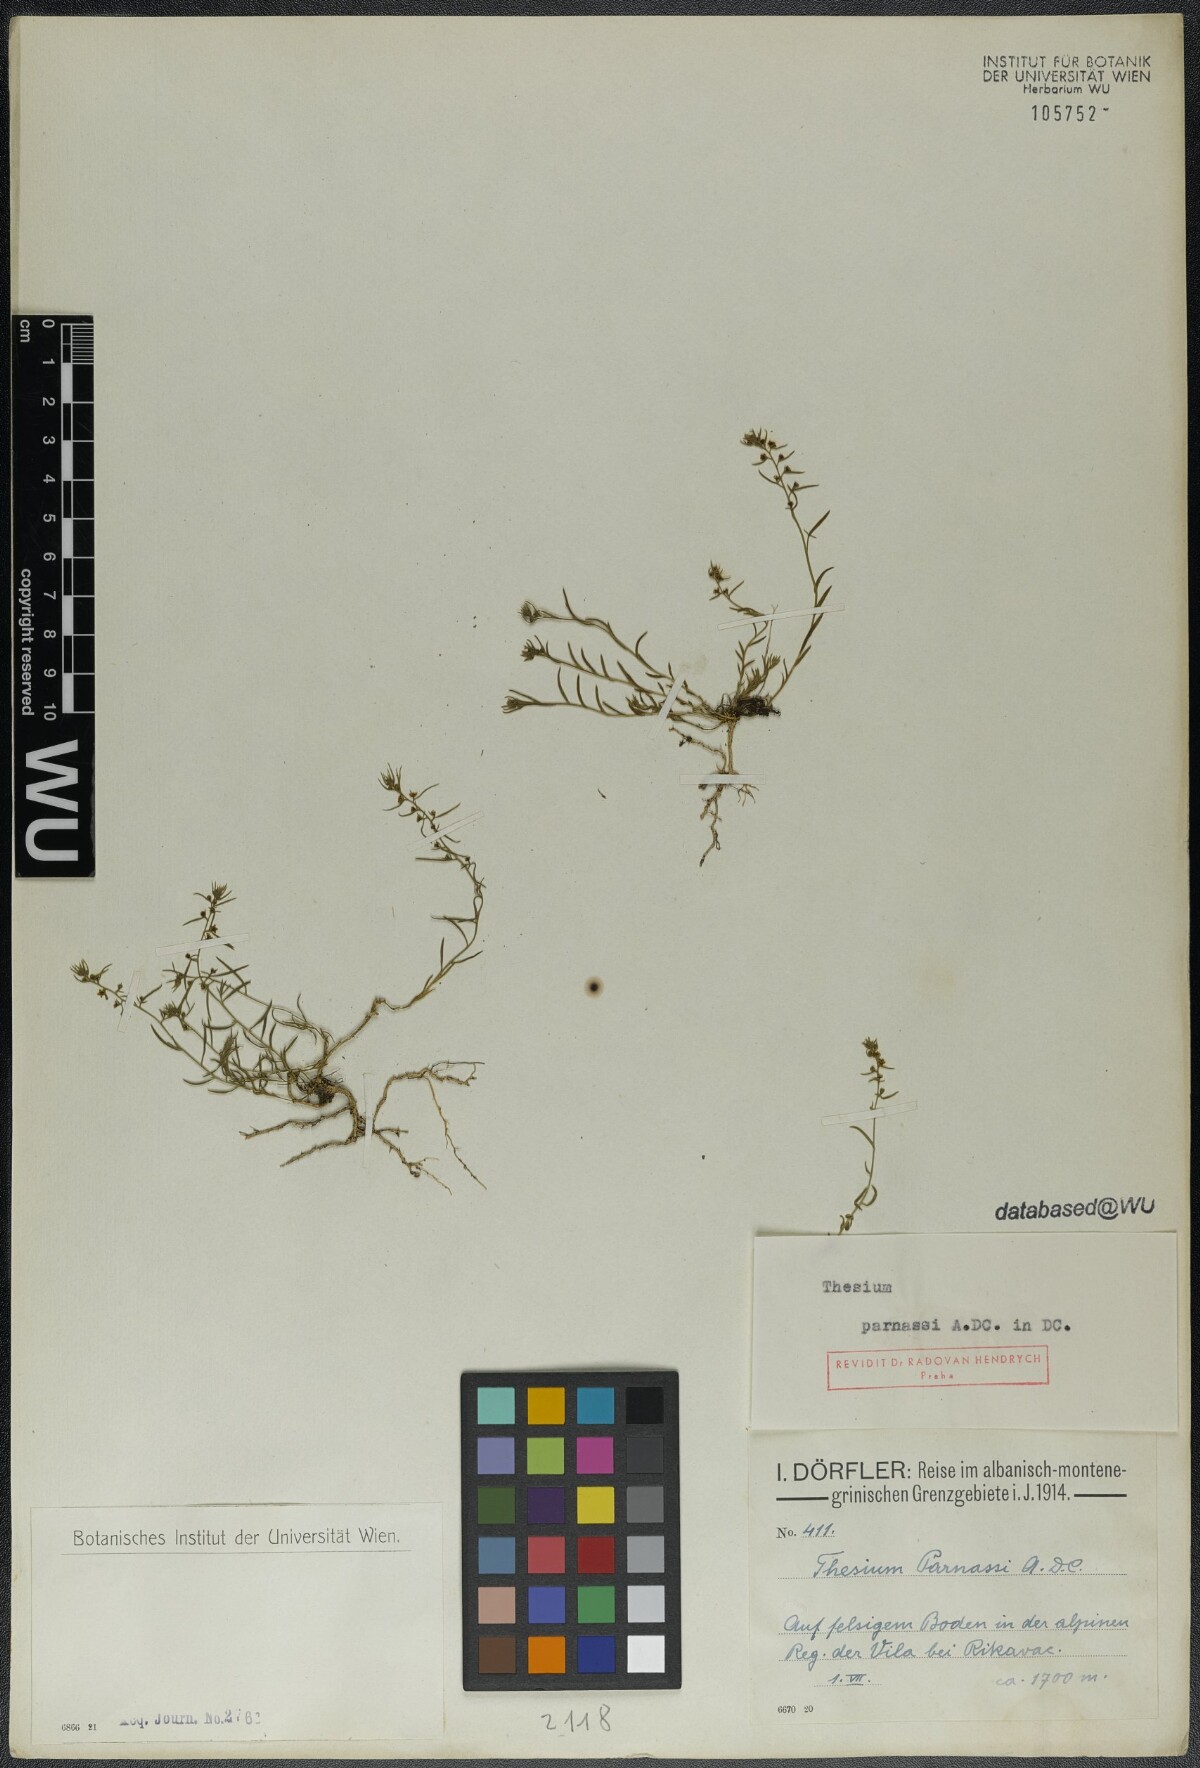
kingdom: Plantae
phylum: Tracheophyta
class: Magnoliopsida
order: Santalales
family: Thesiaceae
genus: Thesium
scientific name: Thesium parnassi
